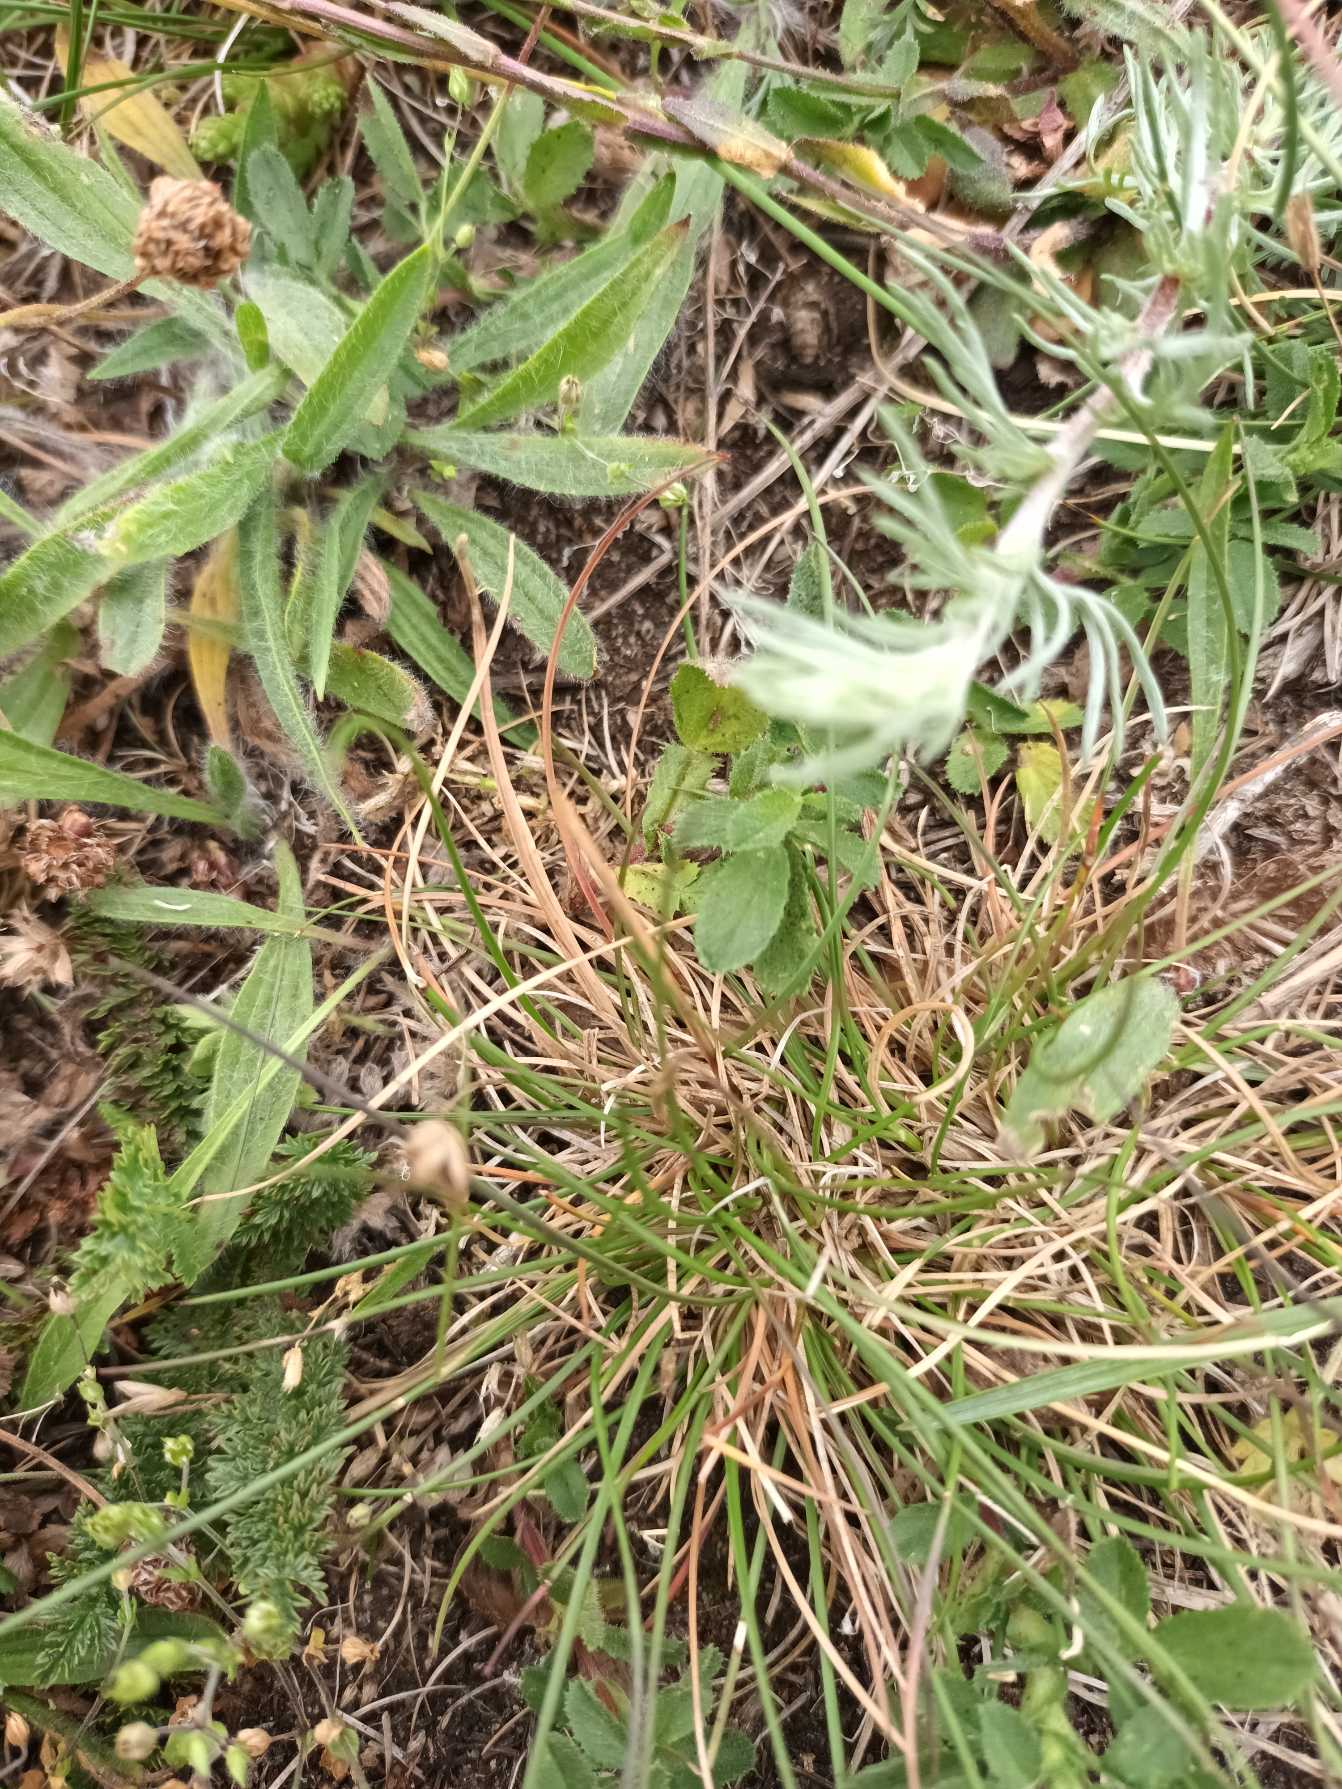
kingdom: Plantae
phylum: Tracheophyta
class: Liliopsida
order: Poales
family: Poaceae
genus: Festuca
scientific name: Festuca trachyphylla
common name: Bakke-svingel
